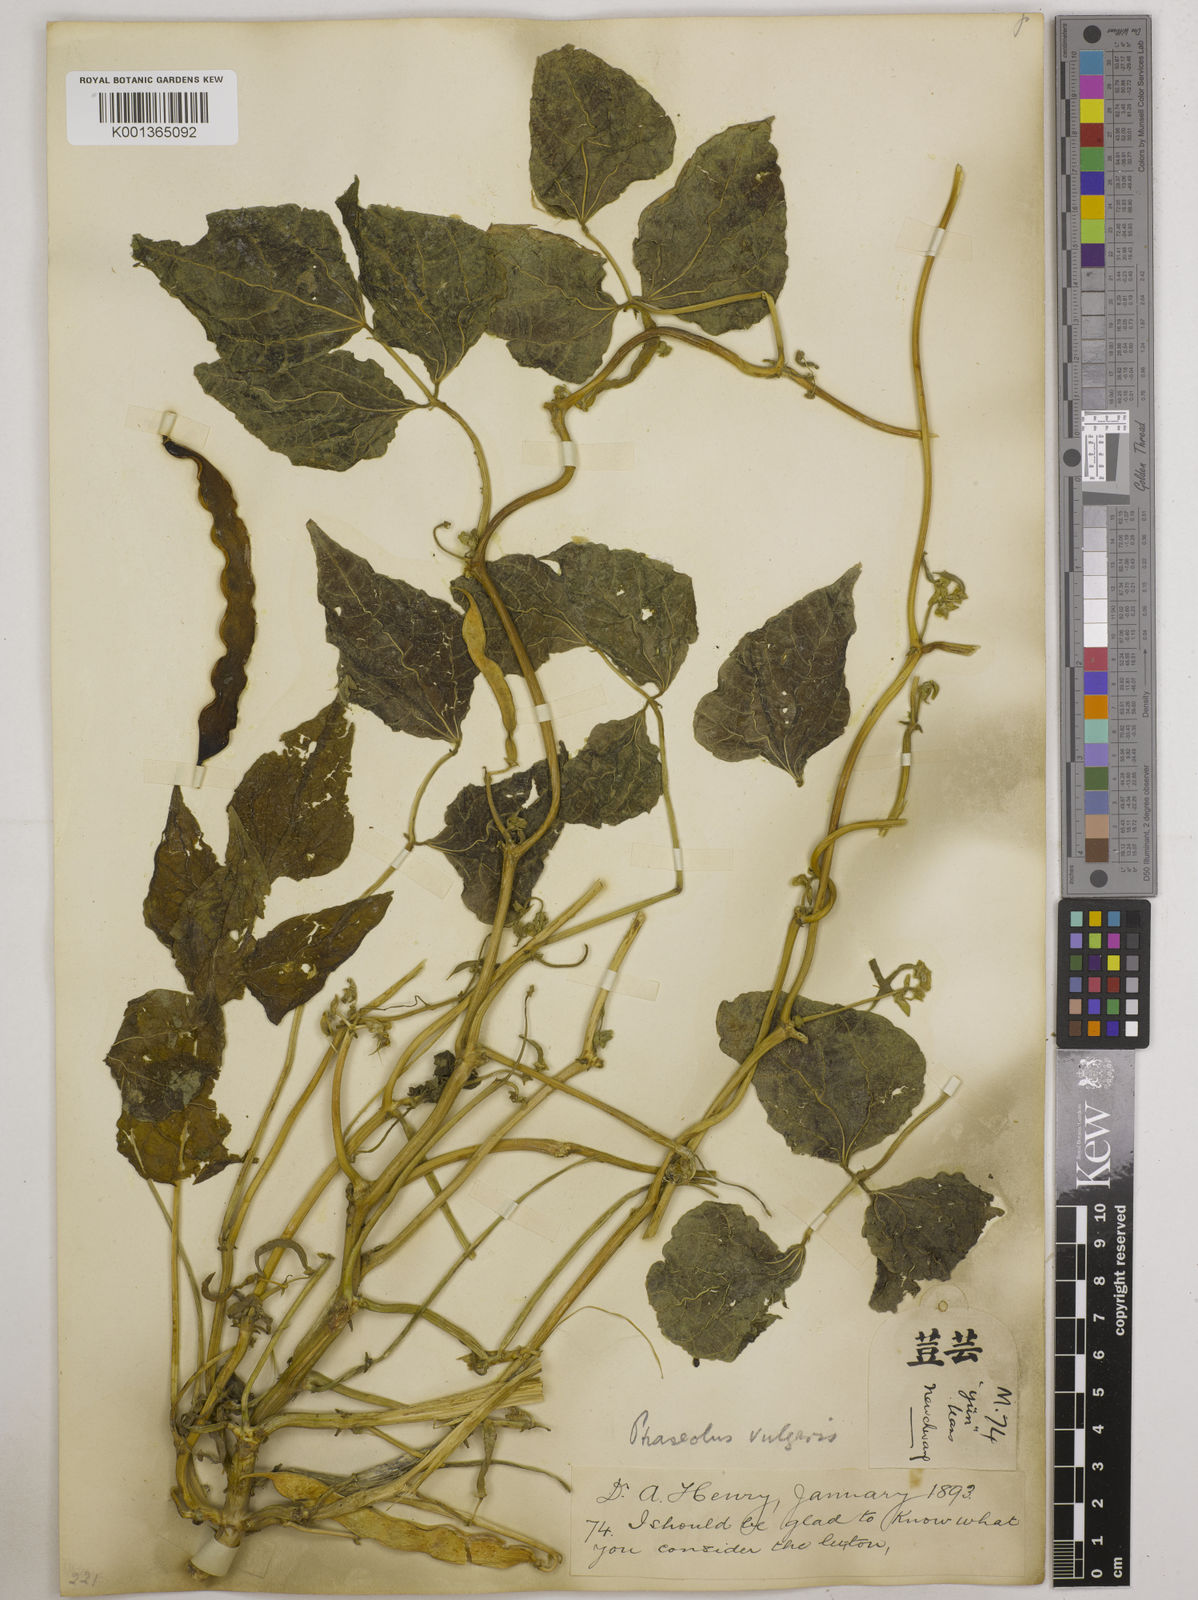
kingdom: Plantae
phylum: Tracheophyta
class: Magnoliopsida
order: Fabales
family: Fabaceae
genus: Phaseolus
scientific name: Phaseolus vulgaris
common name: Bean
